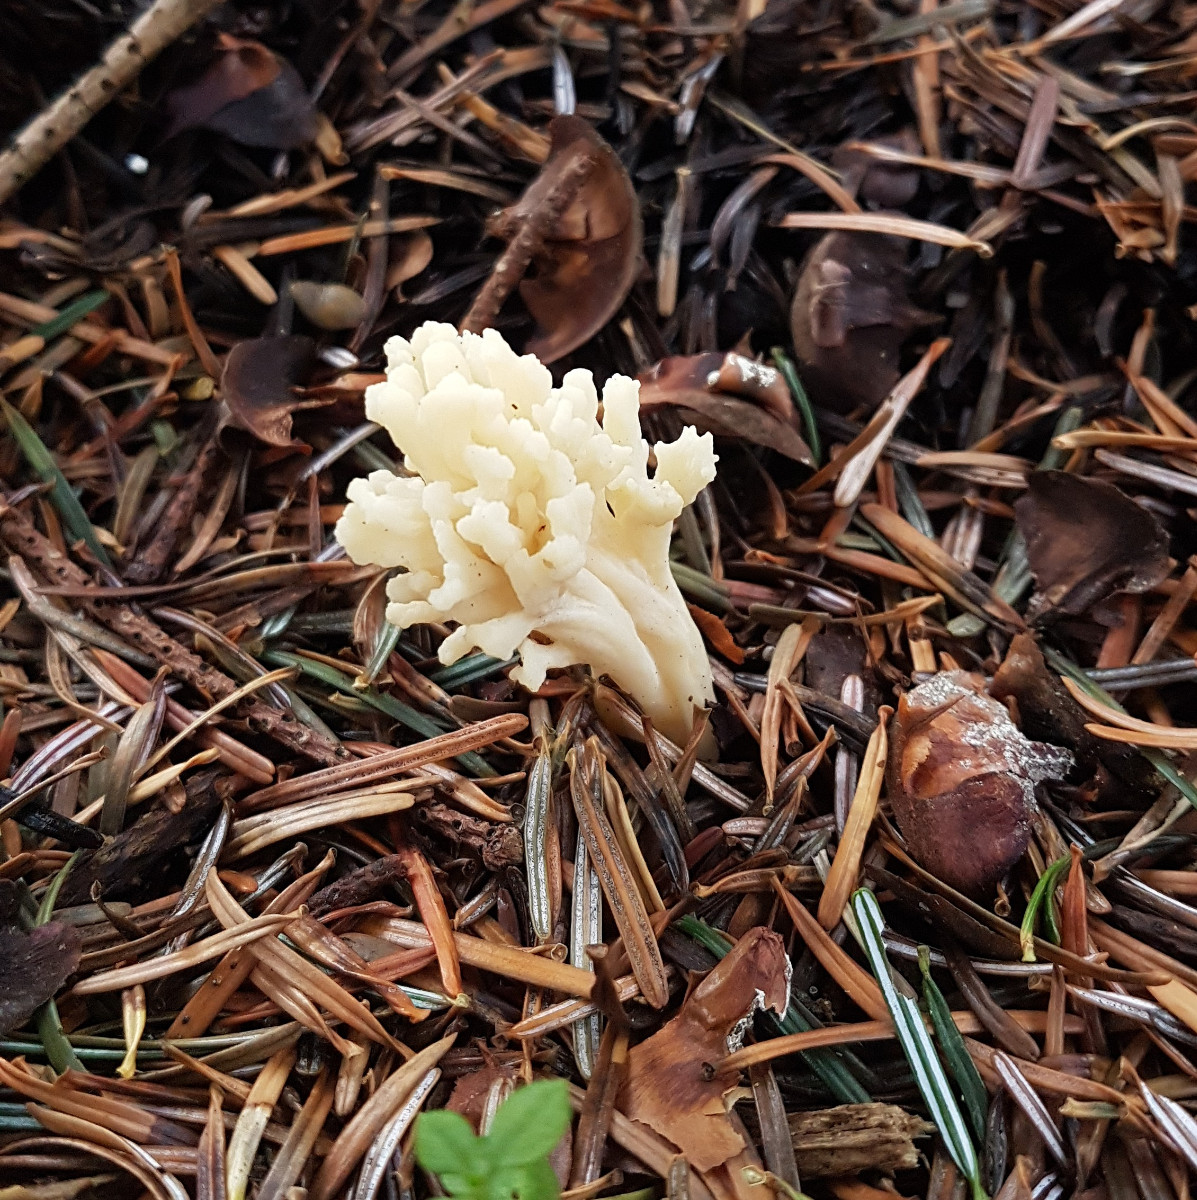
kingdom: Fungi
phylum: Basidiomycota
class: Agaricomycetes
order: Cantharellales
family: Hydnaceae
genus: Clavulina
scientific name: Clavulina
